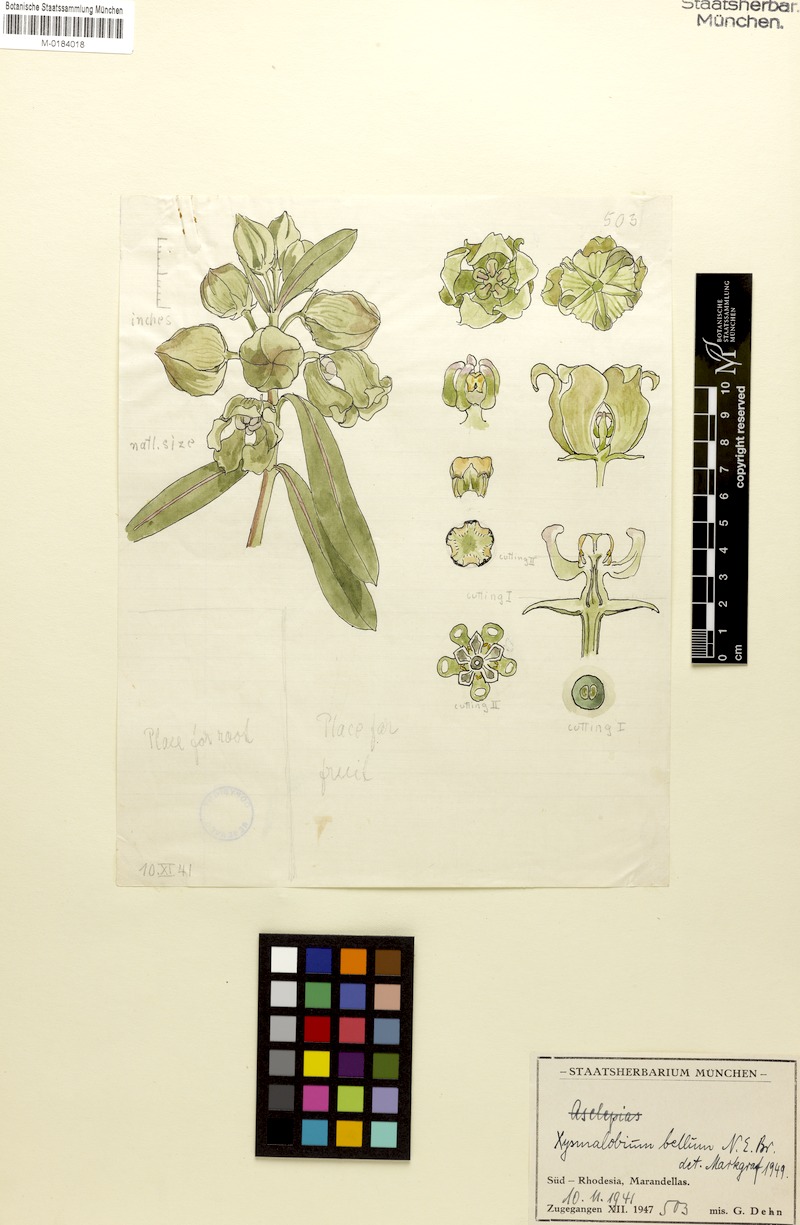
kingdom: Plantae
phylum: Tracheophyta
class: Magnoliopsida
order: Gentianales
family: Apocynaceae
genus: Glossostelma
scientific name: Glossostelma spathulatum
